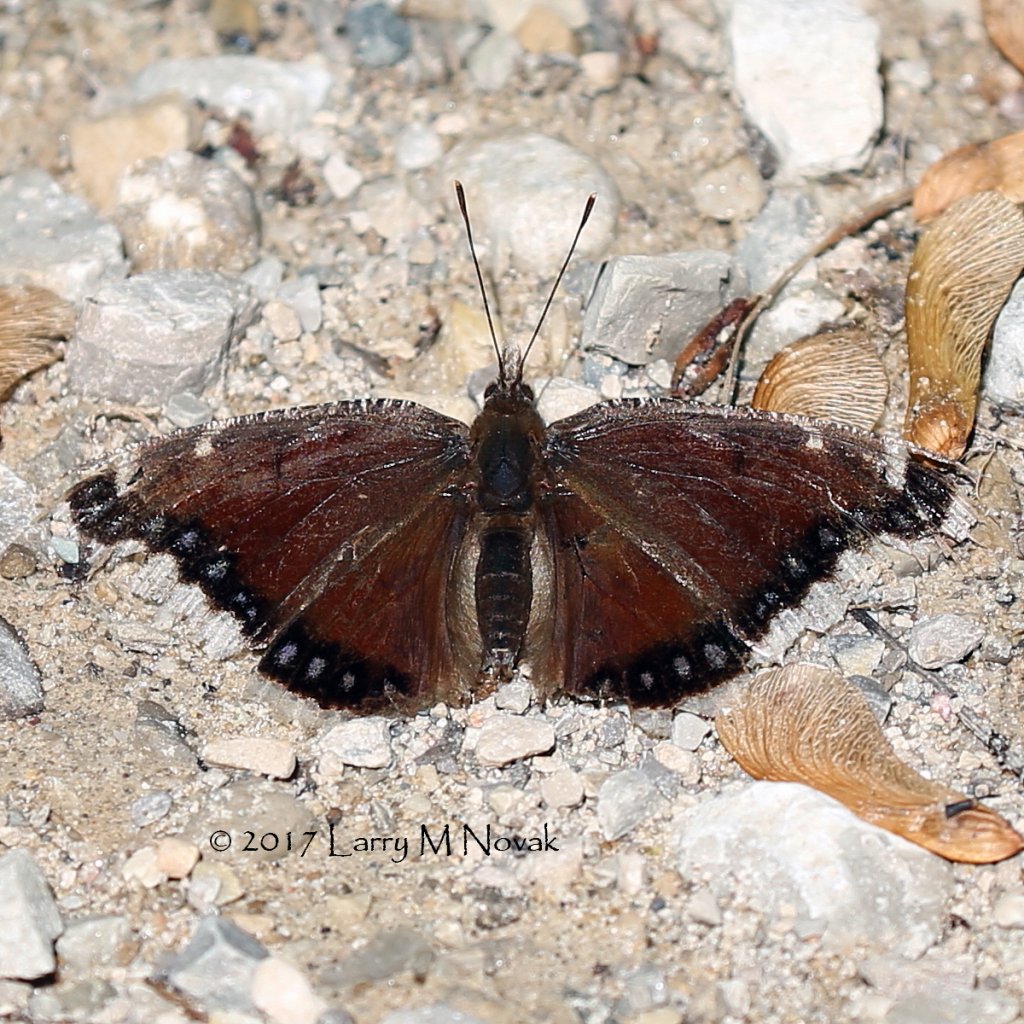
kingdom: Animalia
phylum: Arthropoda
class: Insecta
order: Lepidoptera
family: Nymphalidae
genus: Nymphalis
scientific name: Nymphalis antiopa
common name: Mourning Cloak
